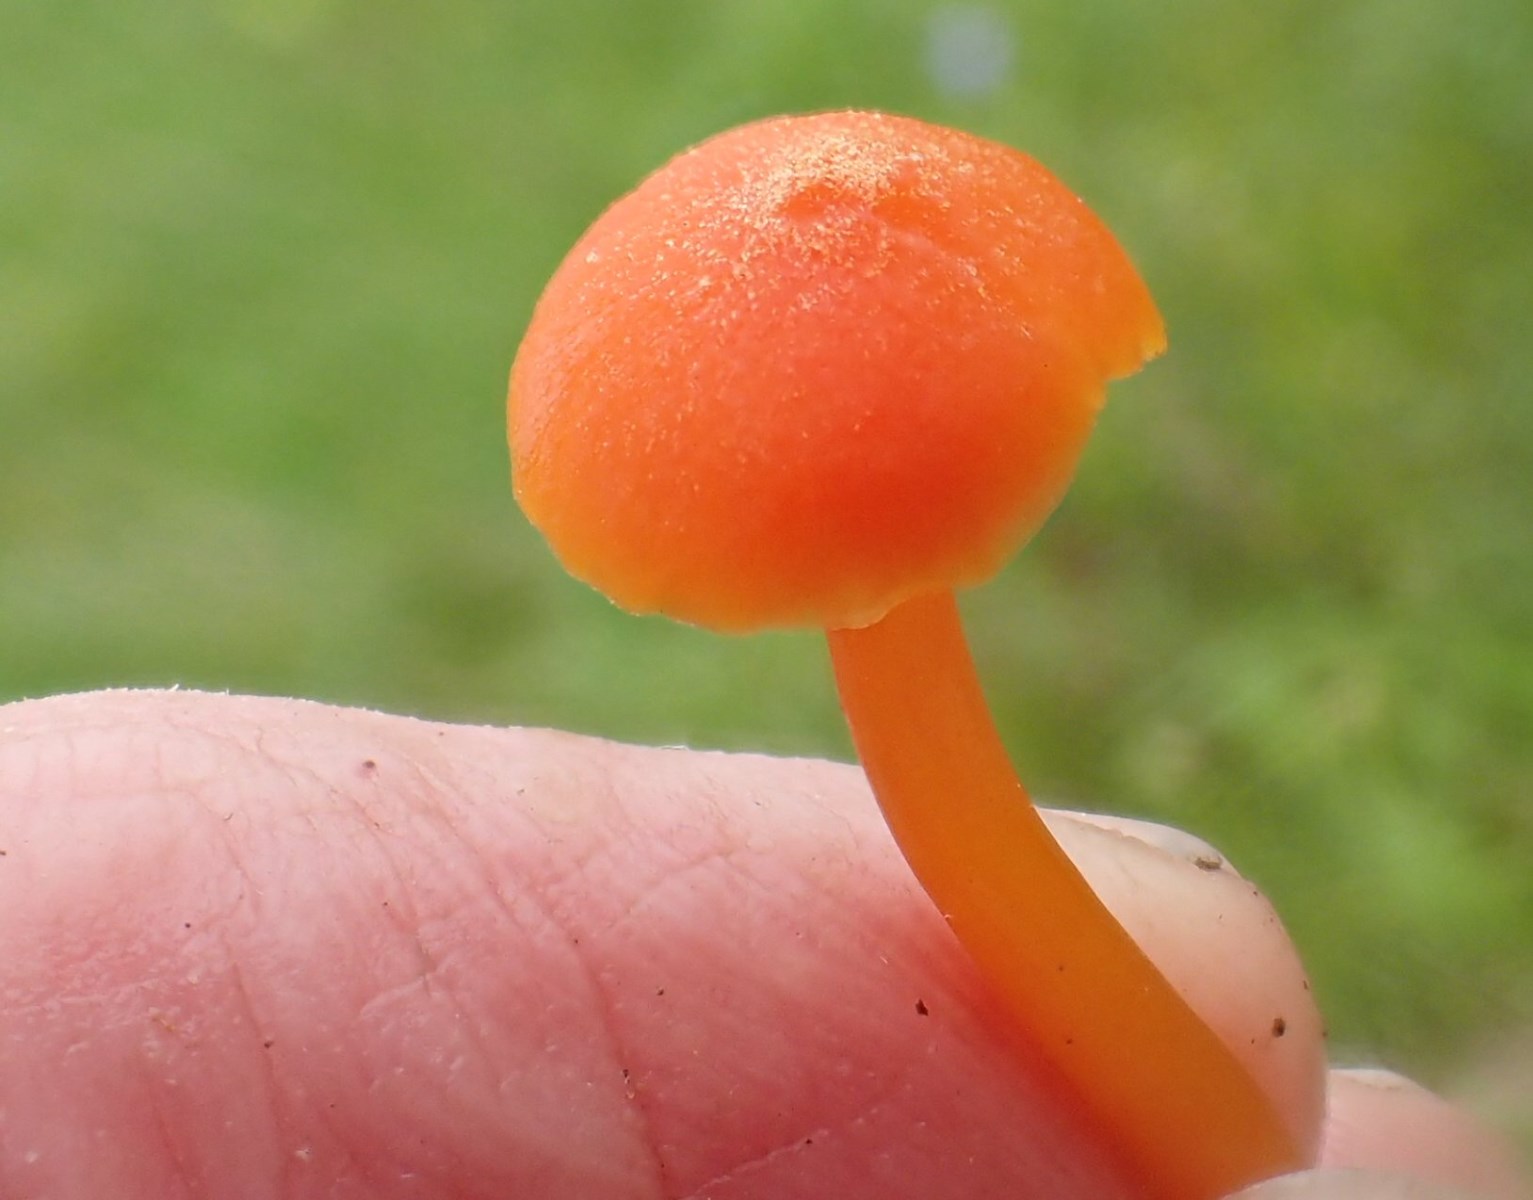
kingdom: Fungi
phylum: Basidiomycota
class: Agaricomycetes
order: Agaricales
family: Hygrophoraceae
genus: Hygrocybe
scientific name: Hygrocybe miniata
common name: mønje-vokshat
